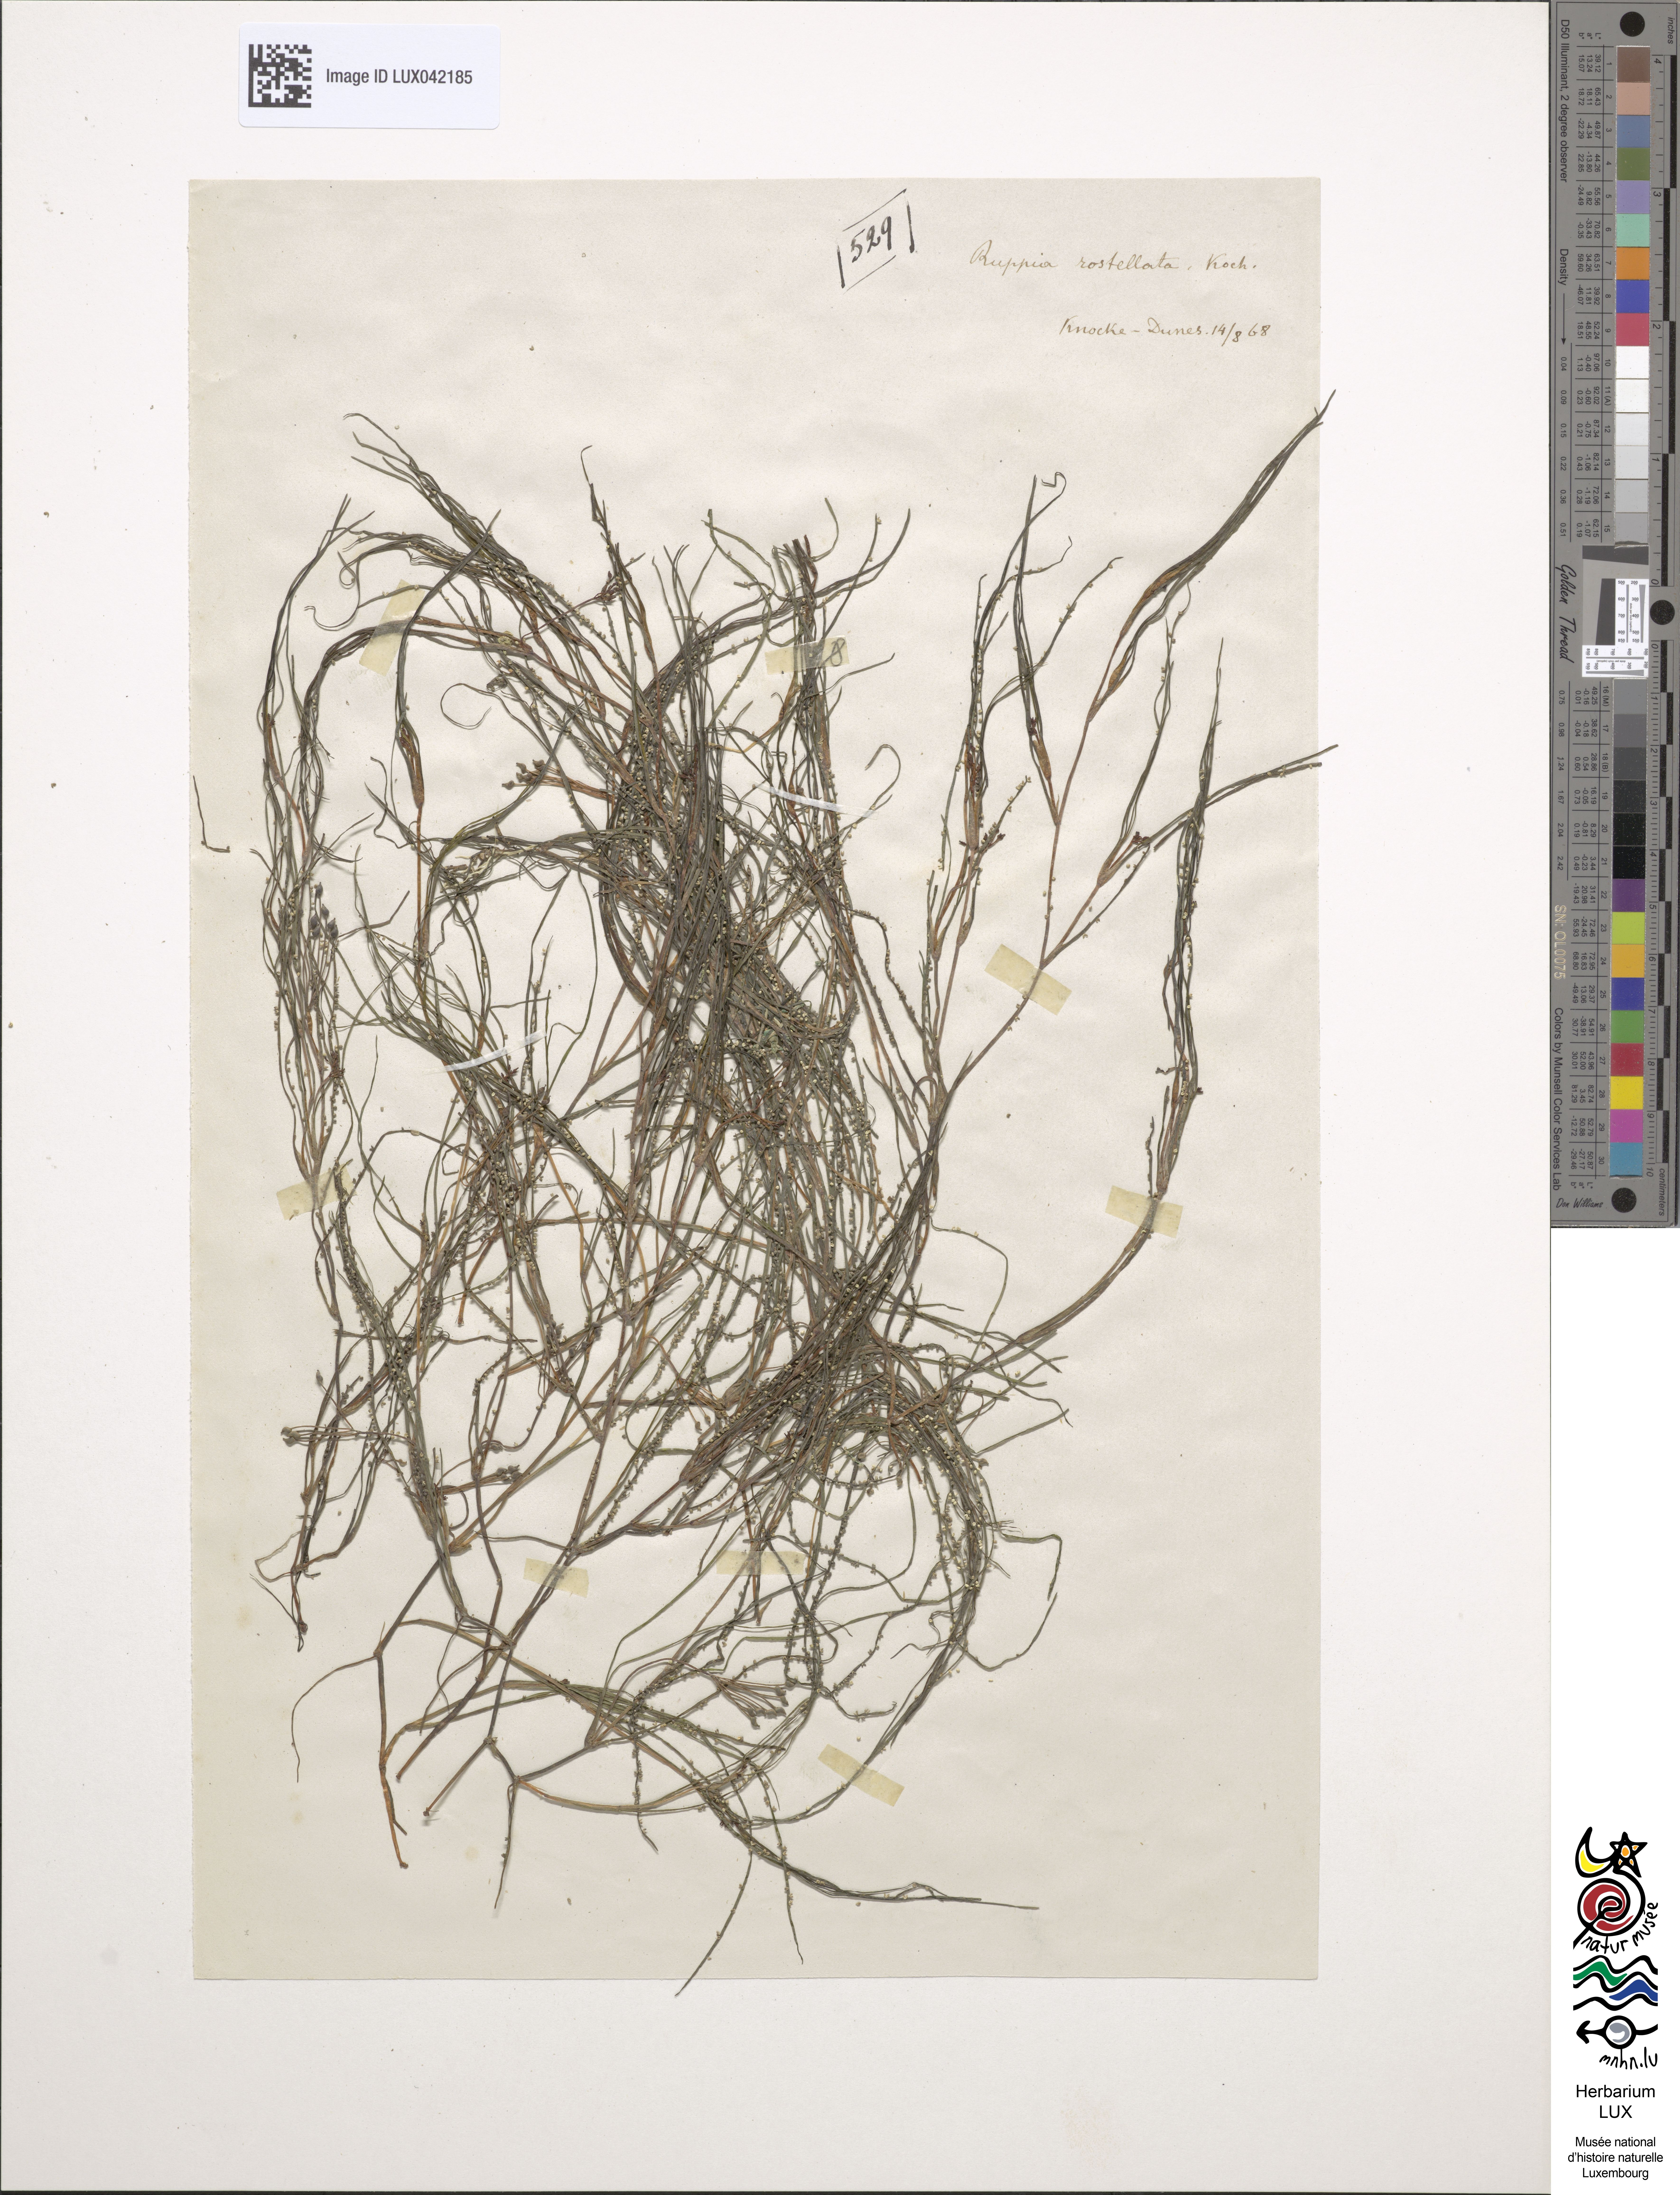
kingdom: Plantae
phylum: Tracheophyta
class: Liliopsida
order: Alismatales
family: Ruppiaceae
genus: Ruppia
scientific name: Ruppia maritima
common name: Beaked tasselweed
